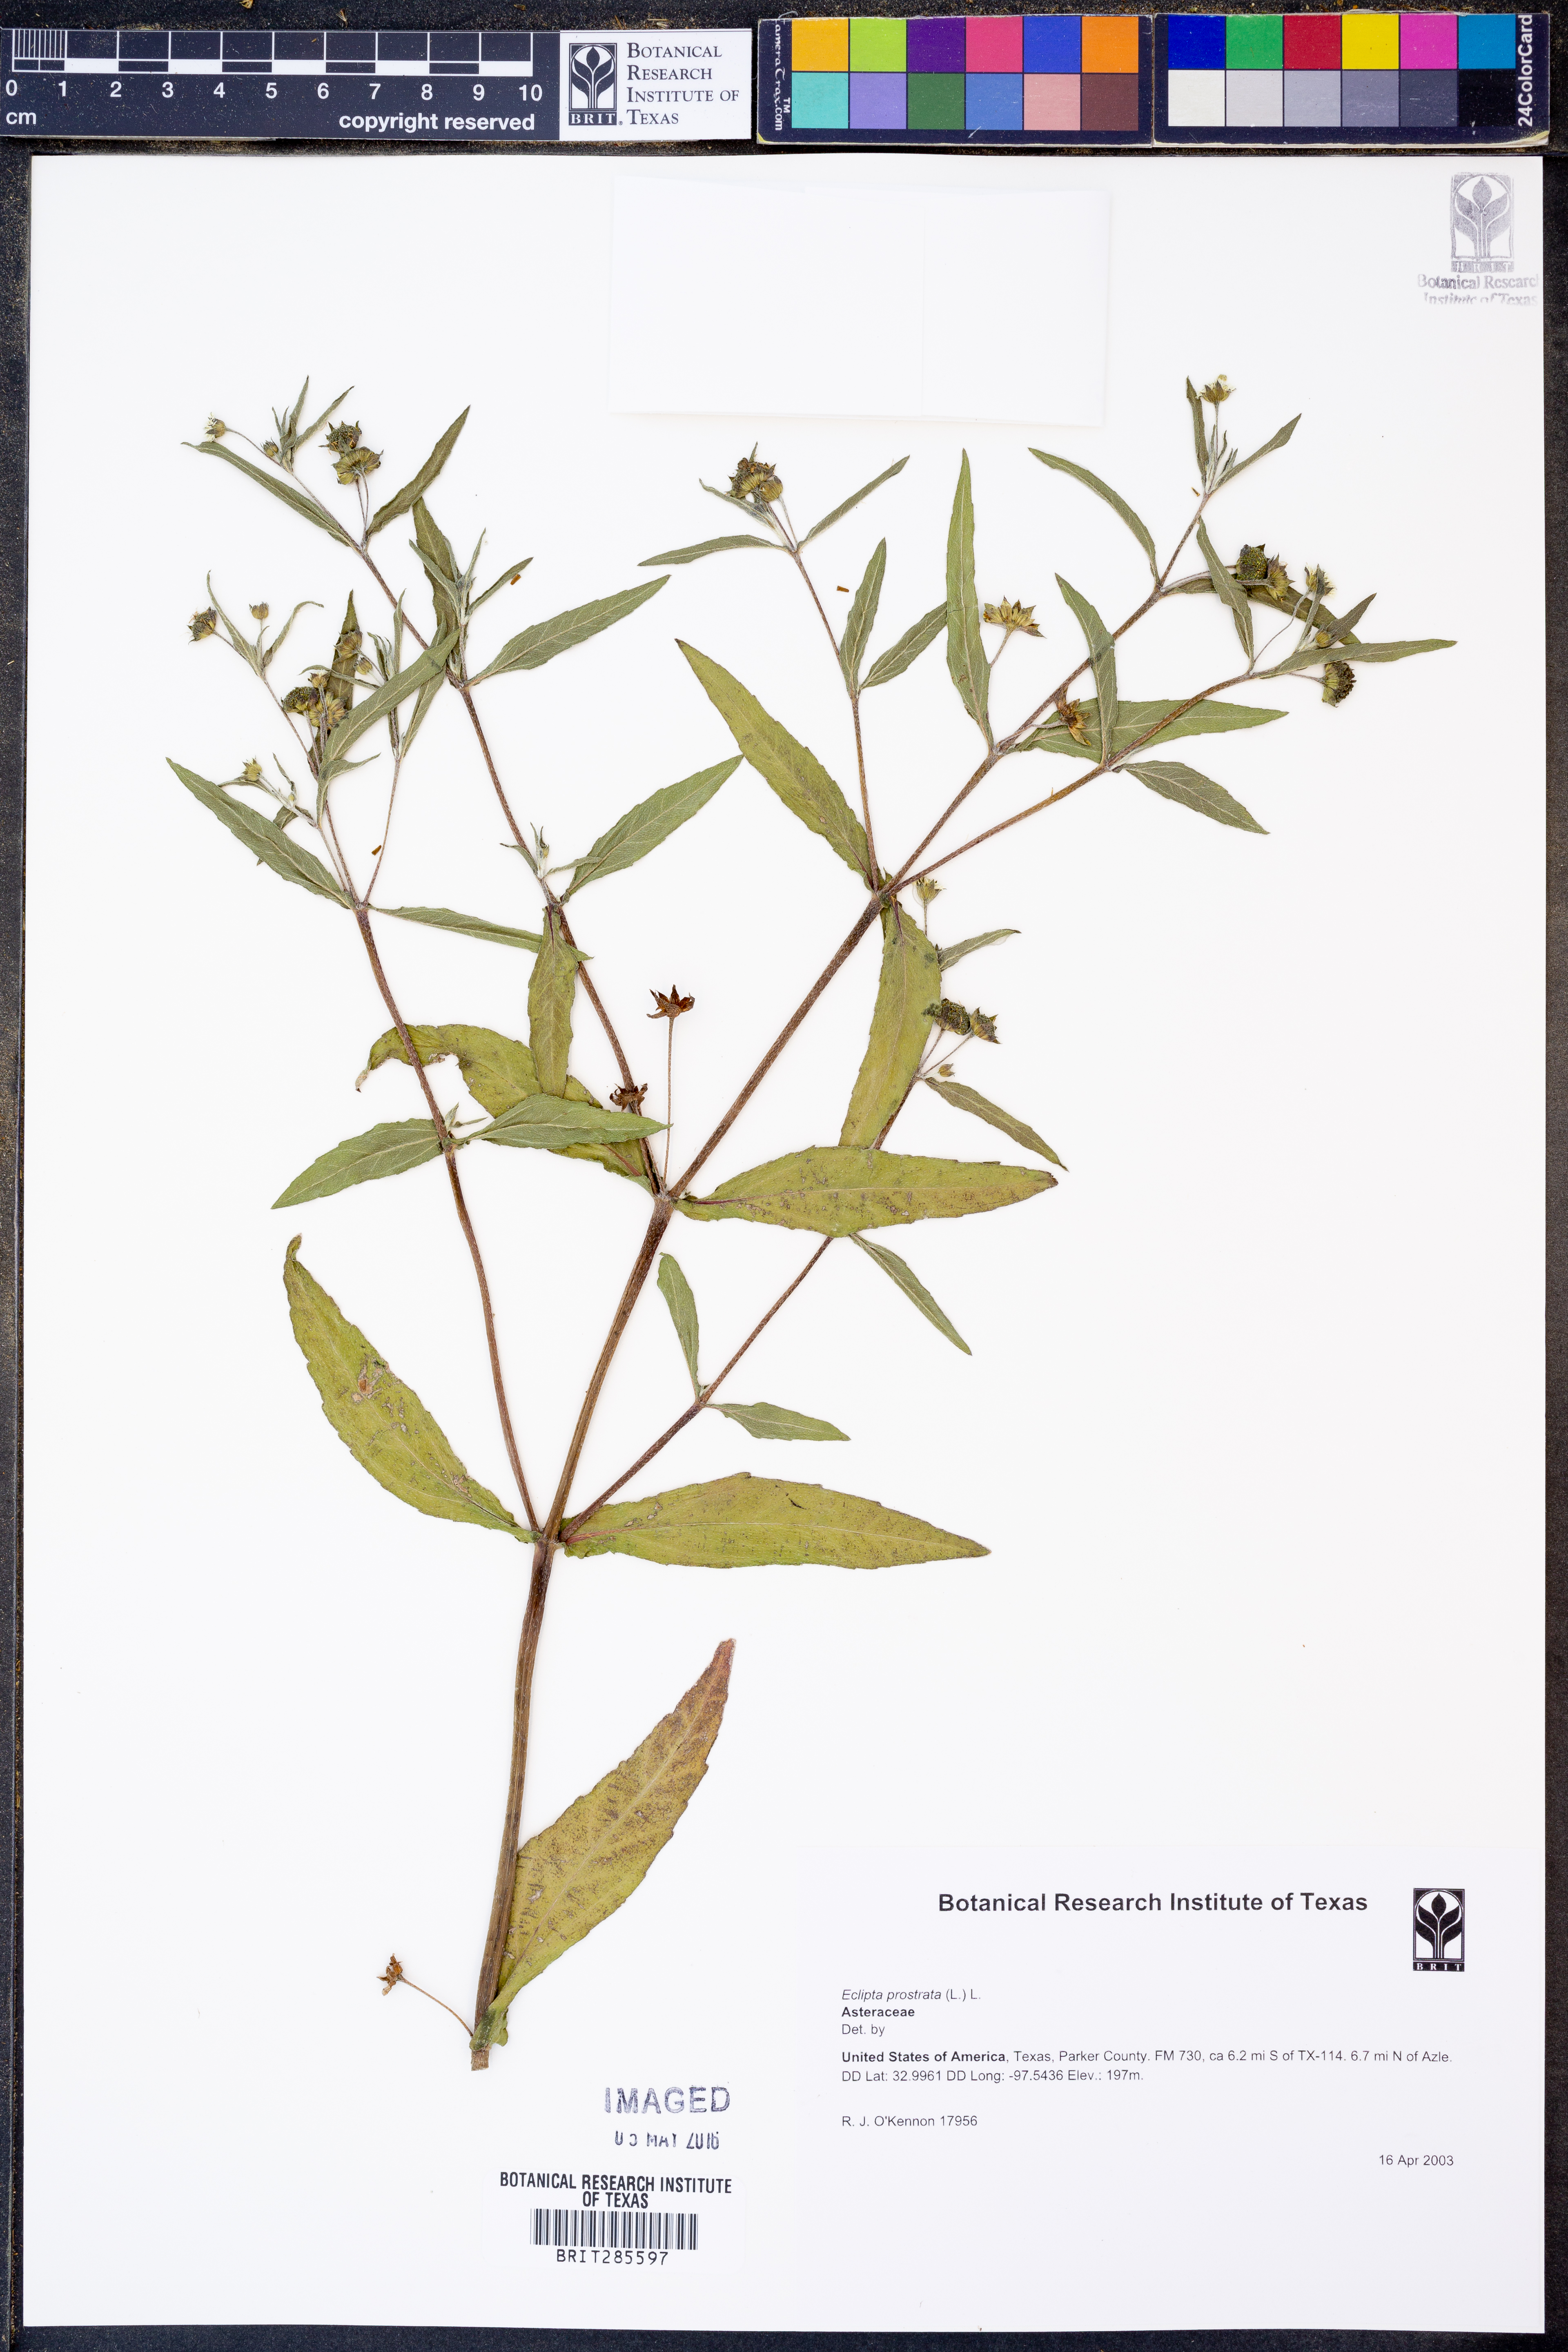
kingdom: Plantae
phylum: Tracheophyta
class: Magnoliopsida
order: Asterales
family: Asteraceae
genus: Eclipta
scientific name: Eclipta prostrata
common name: False daisy
